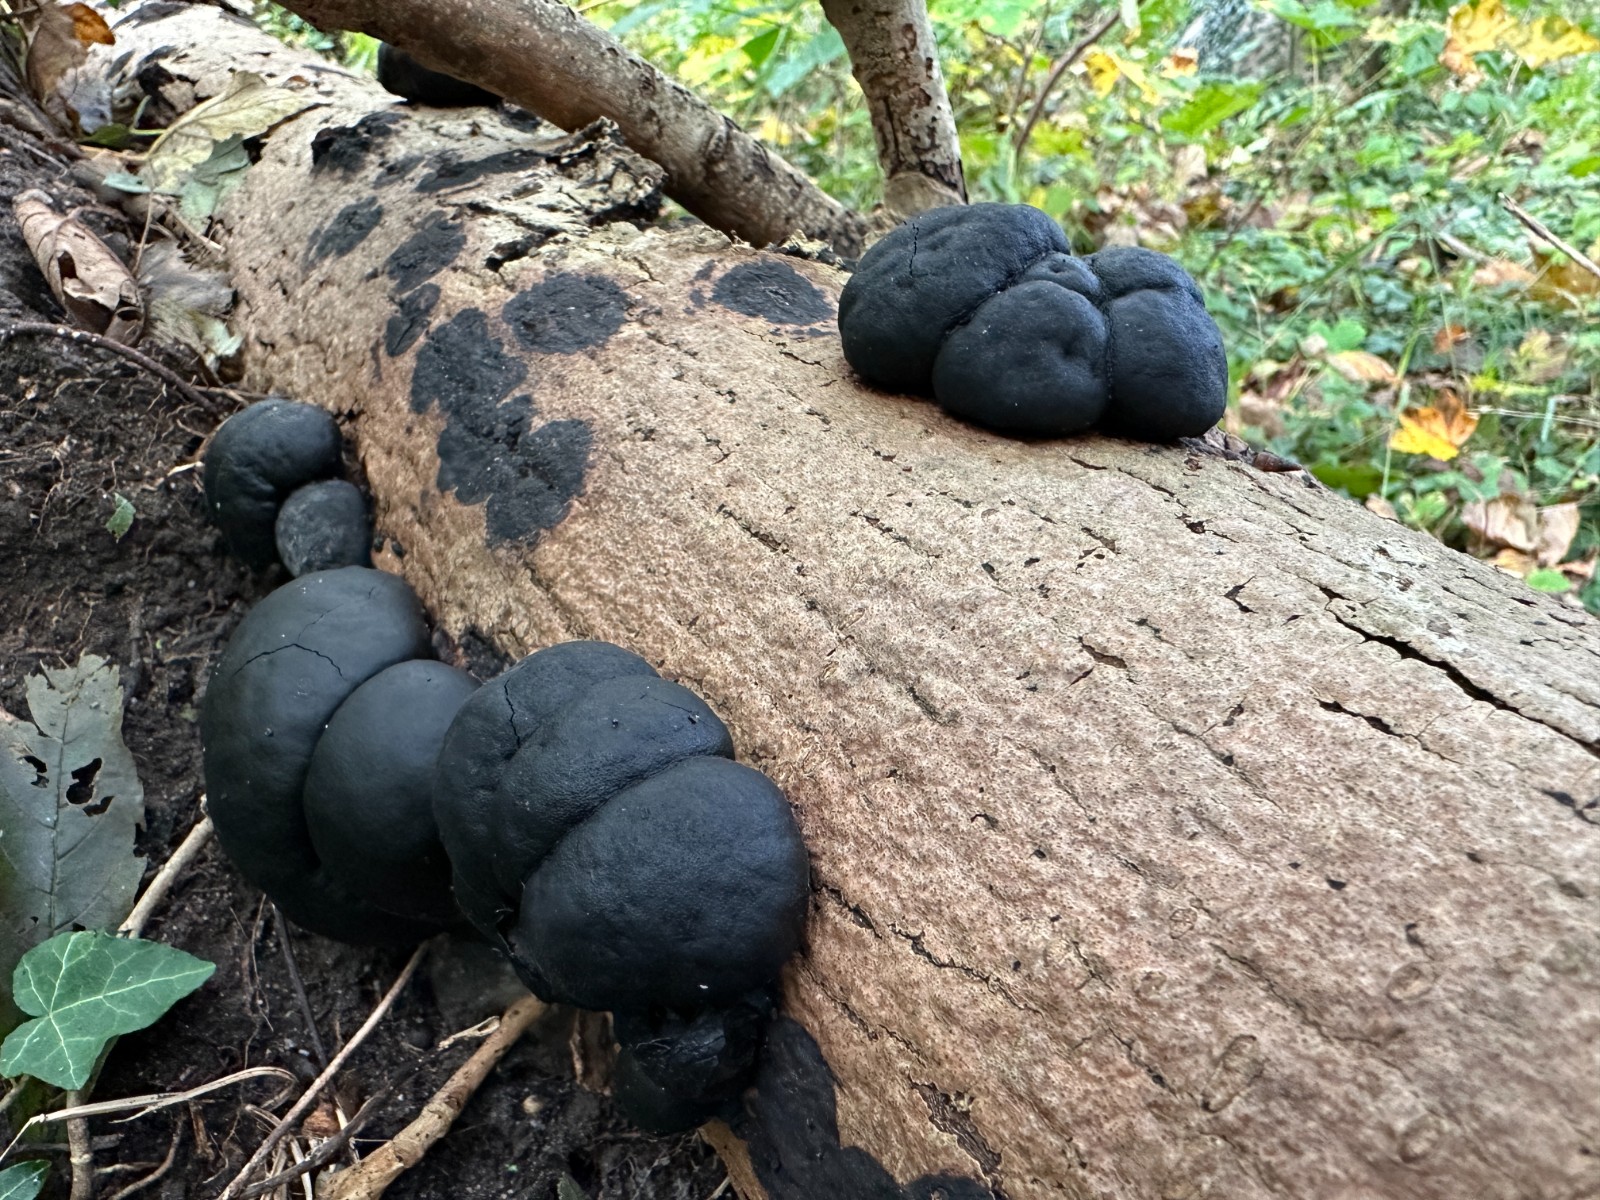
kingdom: Fungi
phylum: Ascomycota
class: Sordariomycetes
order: Xylariales
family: Hypoxylaceae
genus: Daldinia
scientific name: Daldinia concentrica
